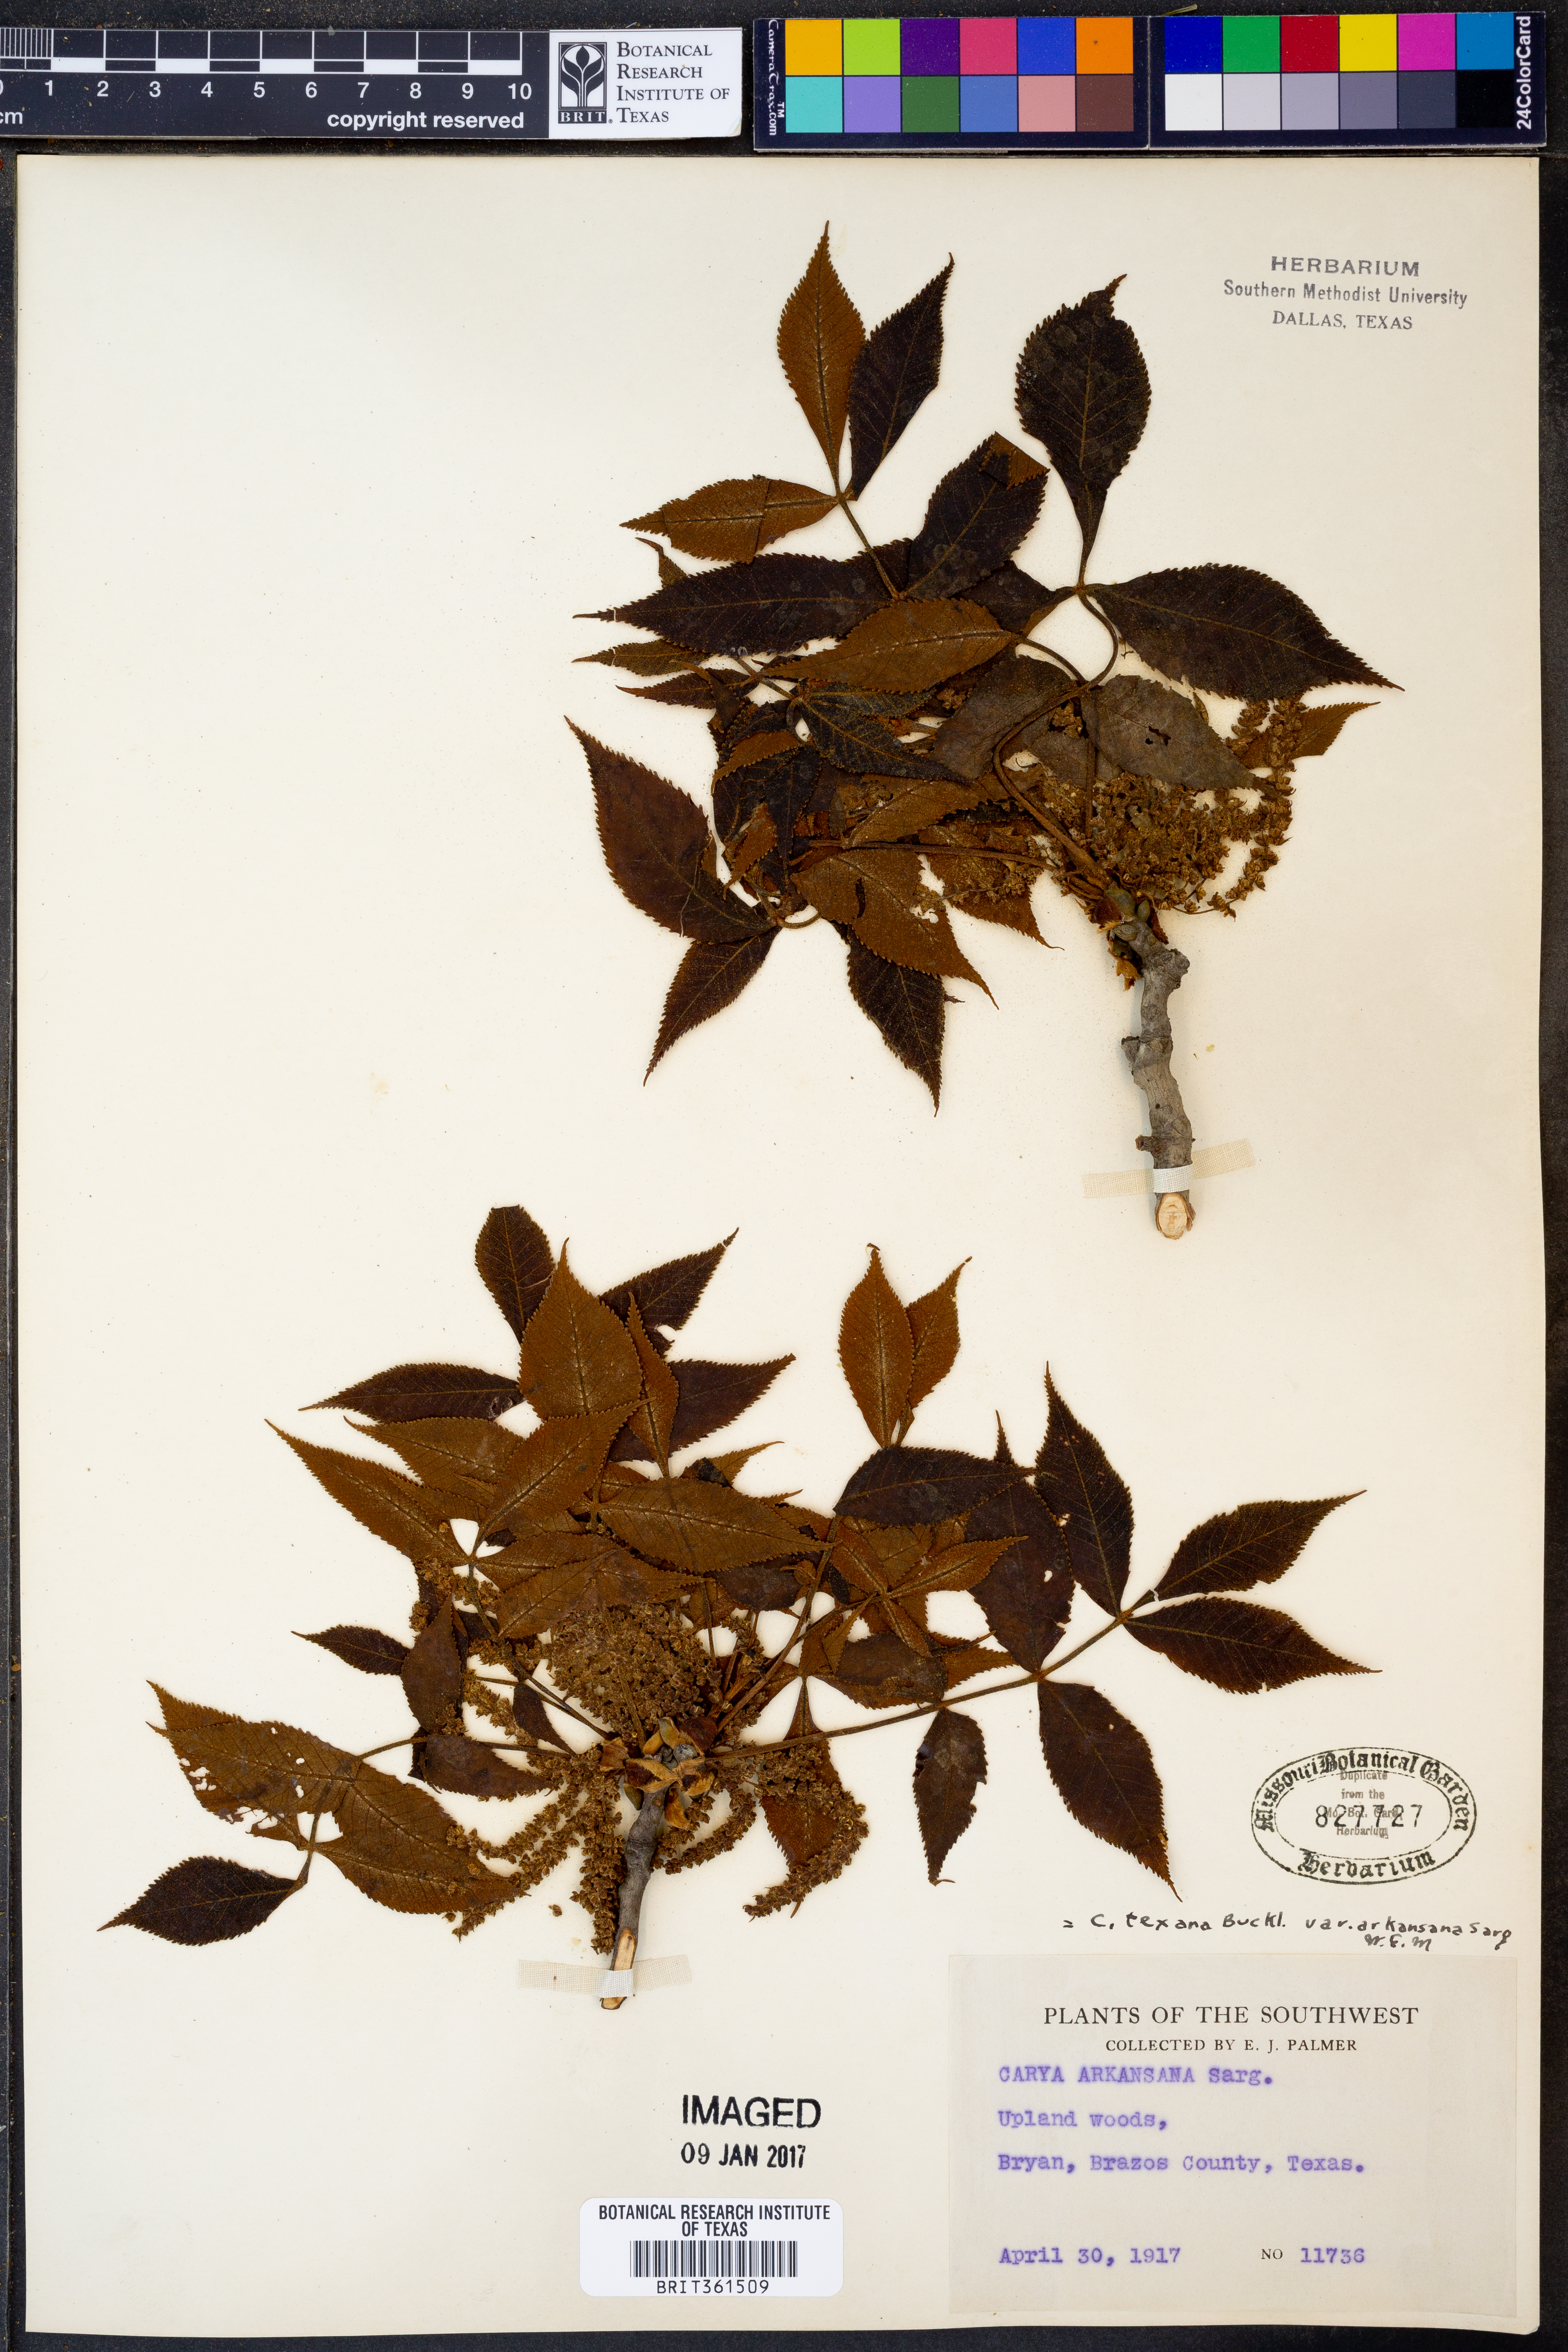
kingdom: Plantae
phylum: Tracheophyta
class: Magnoliopsida
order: Fagales
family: Juglandaceae
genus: Carya
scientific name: Carya texana
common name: Black hickory
